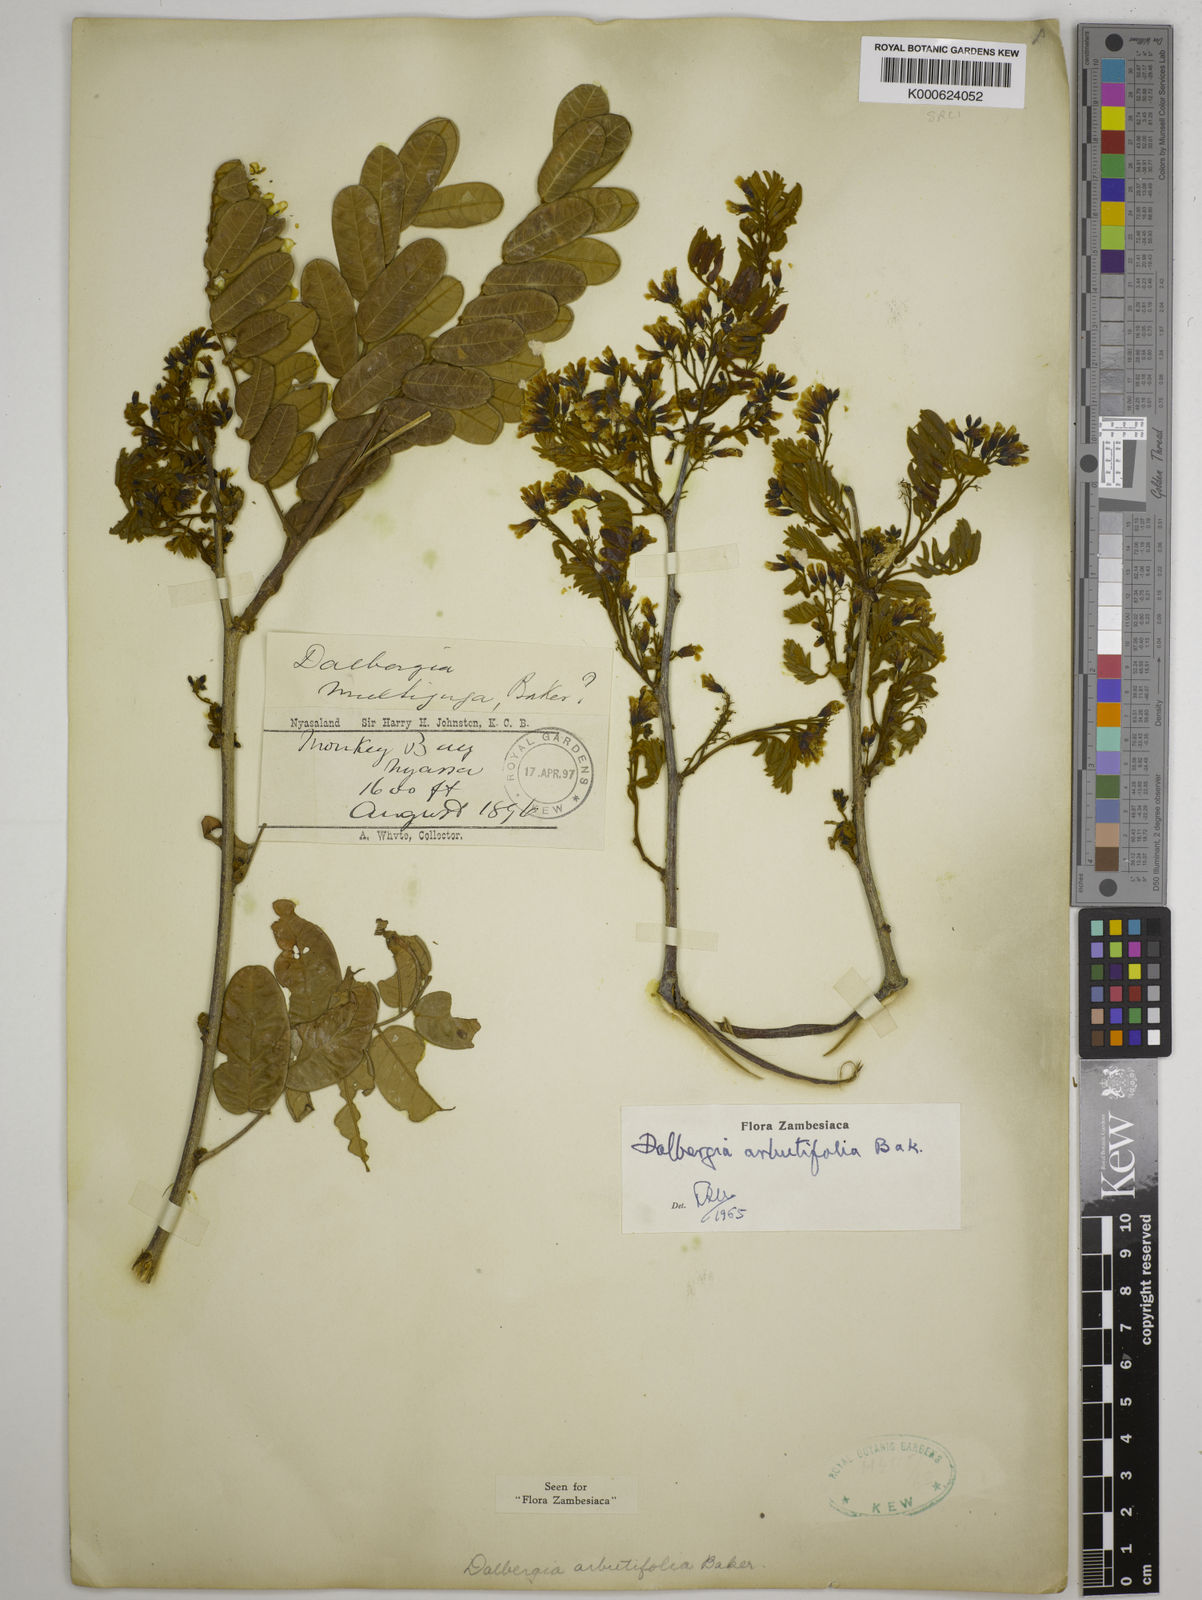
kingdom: Plantae
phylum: Tracheophyta
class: Magnoliopsida
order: Fabales
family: Fabaceae
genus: Dalbergia
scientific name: Dalbergia arbutifolia
